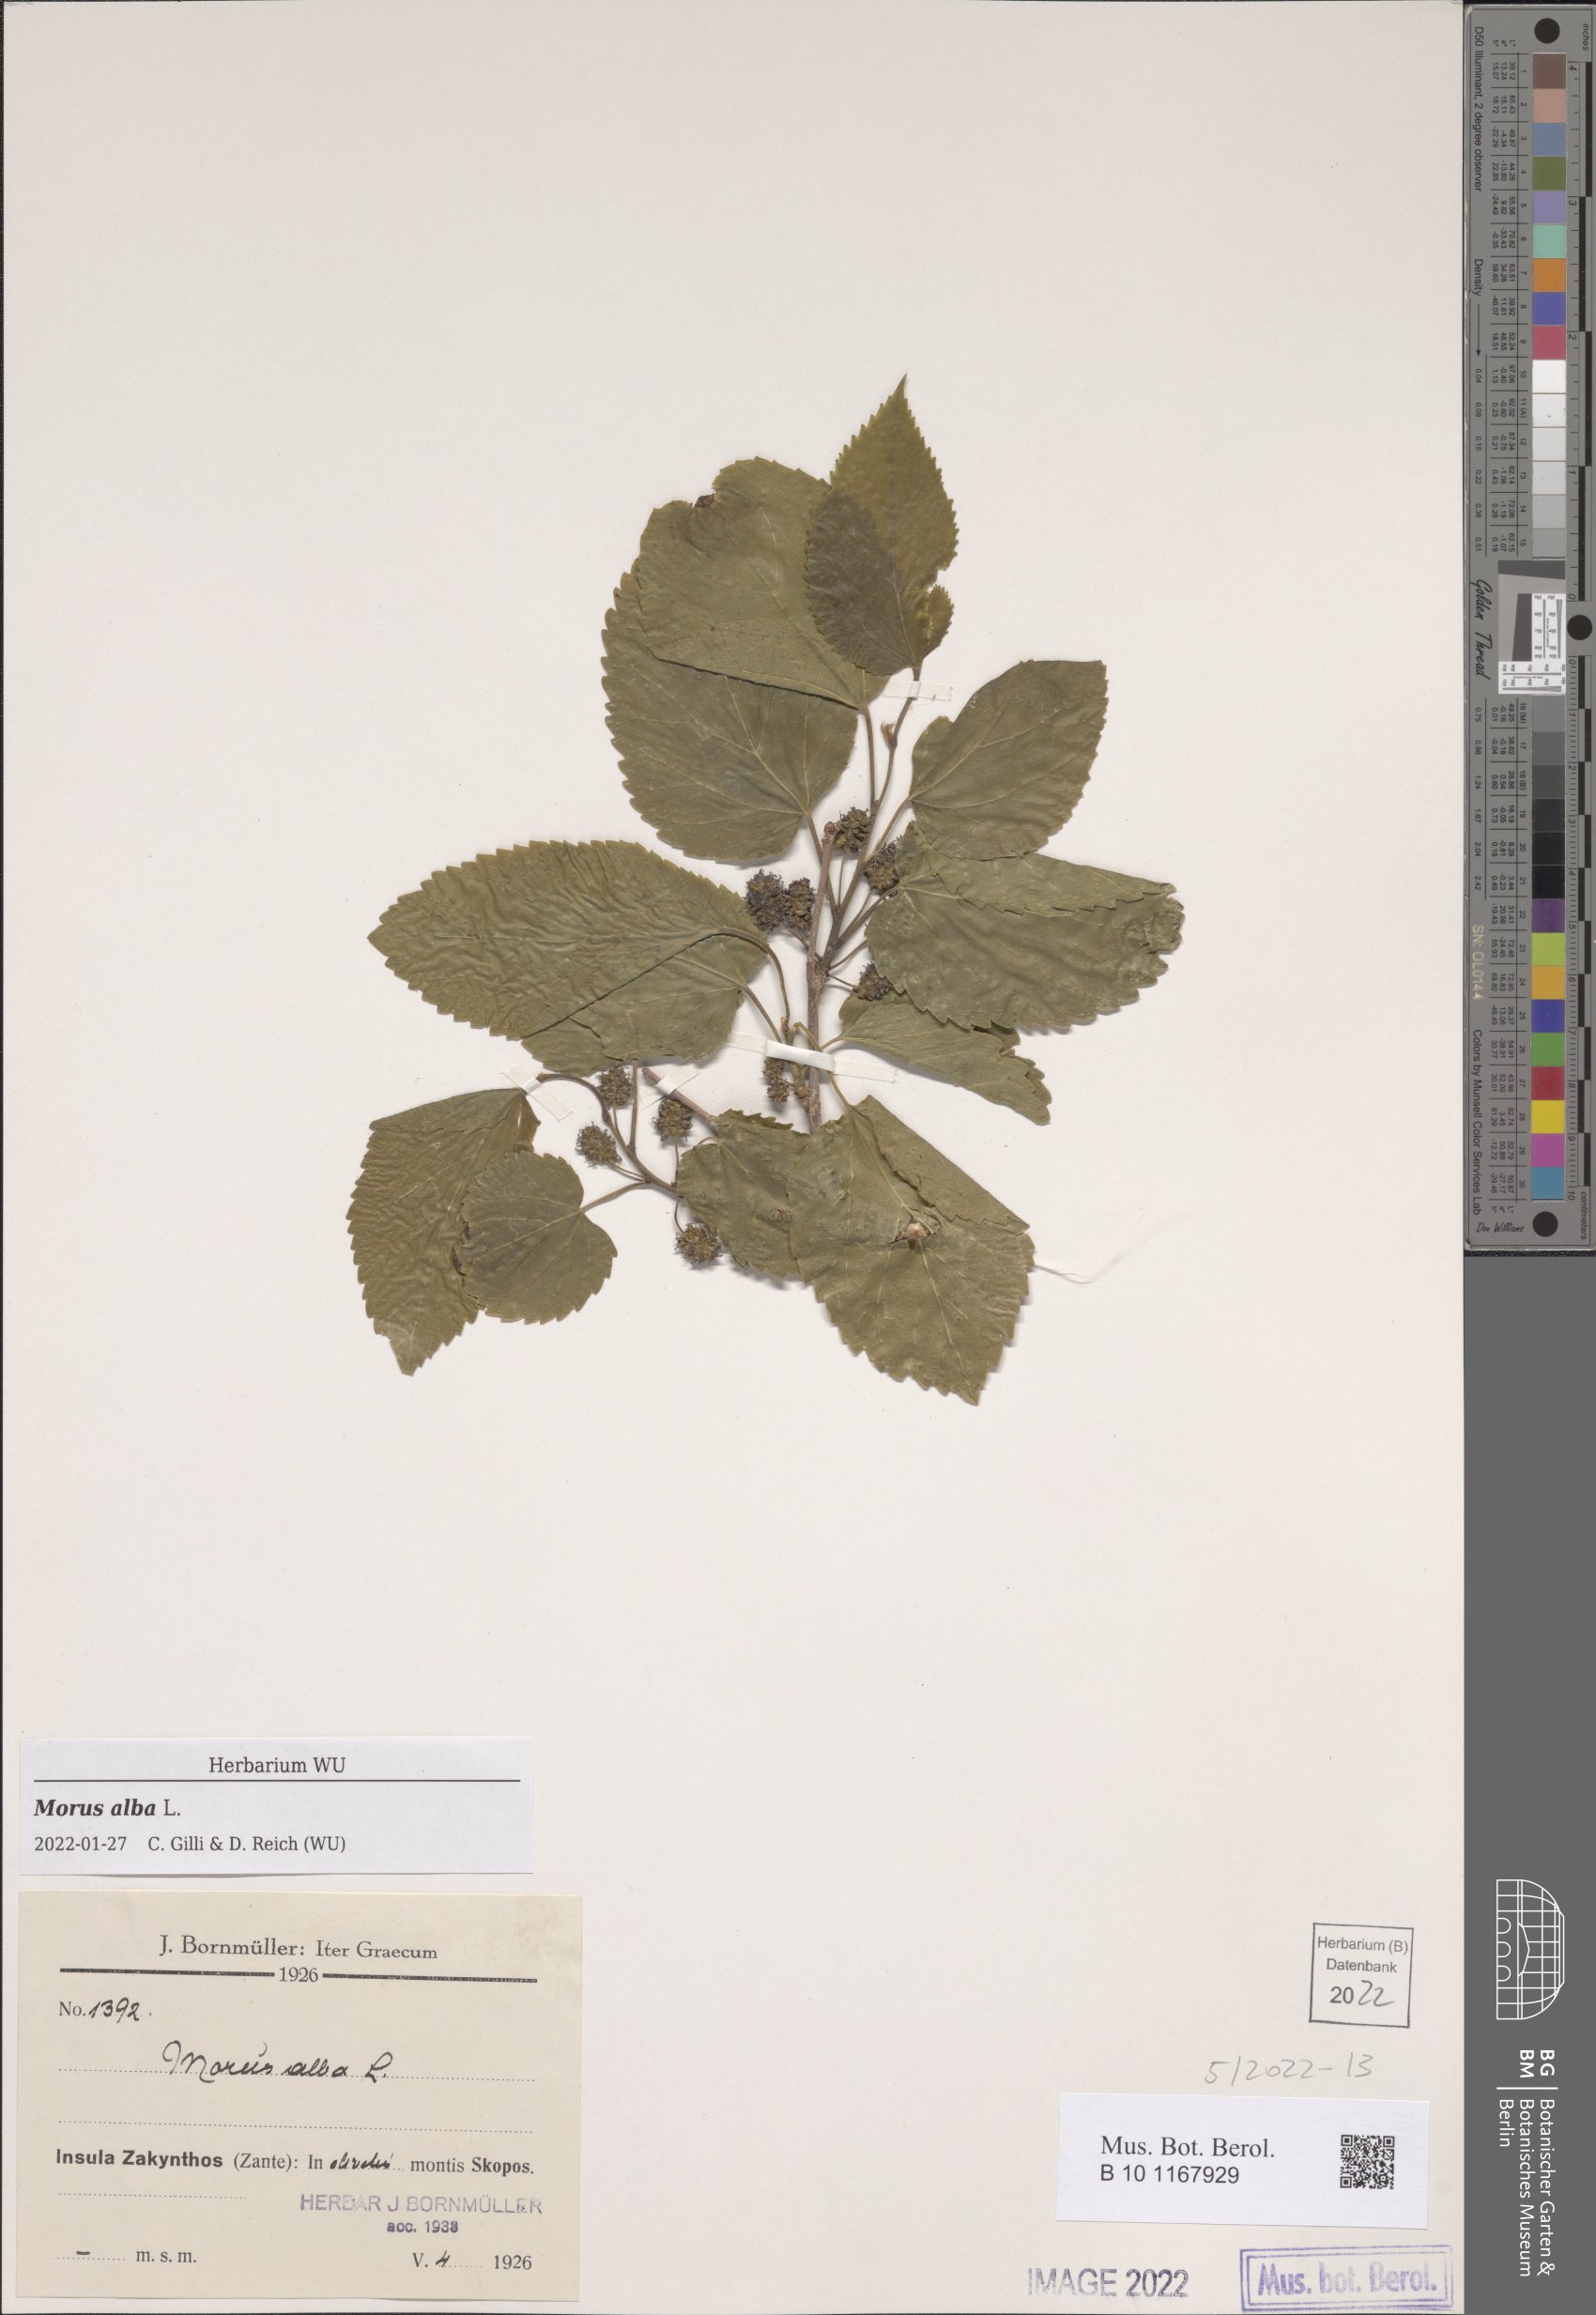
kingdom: Plantae
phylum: Tracheophyta
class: Magnoliopsida
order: Rosales
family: Moraceae
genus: Morus
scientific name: Morus alba
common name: White mulberry
